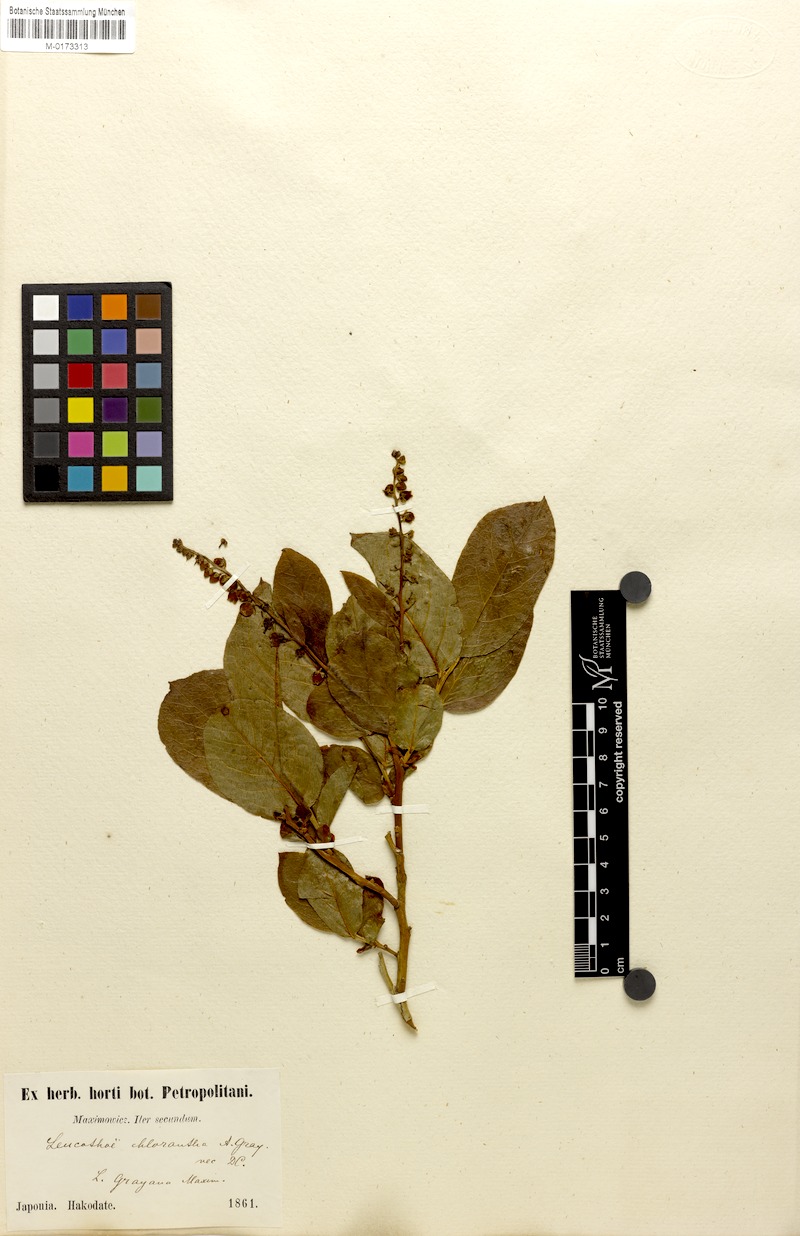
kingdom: Plantae
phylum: Tracheophyta
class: Magnoliopsida
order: Ericales
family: Ericaceae
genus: Leucothoe
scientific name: Leucothoe grayana
